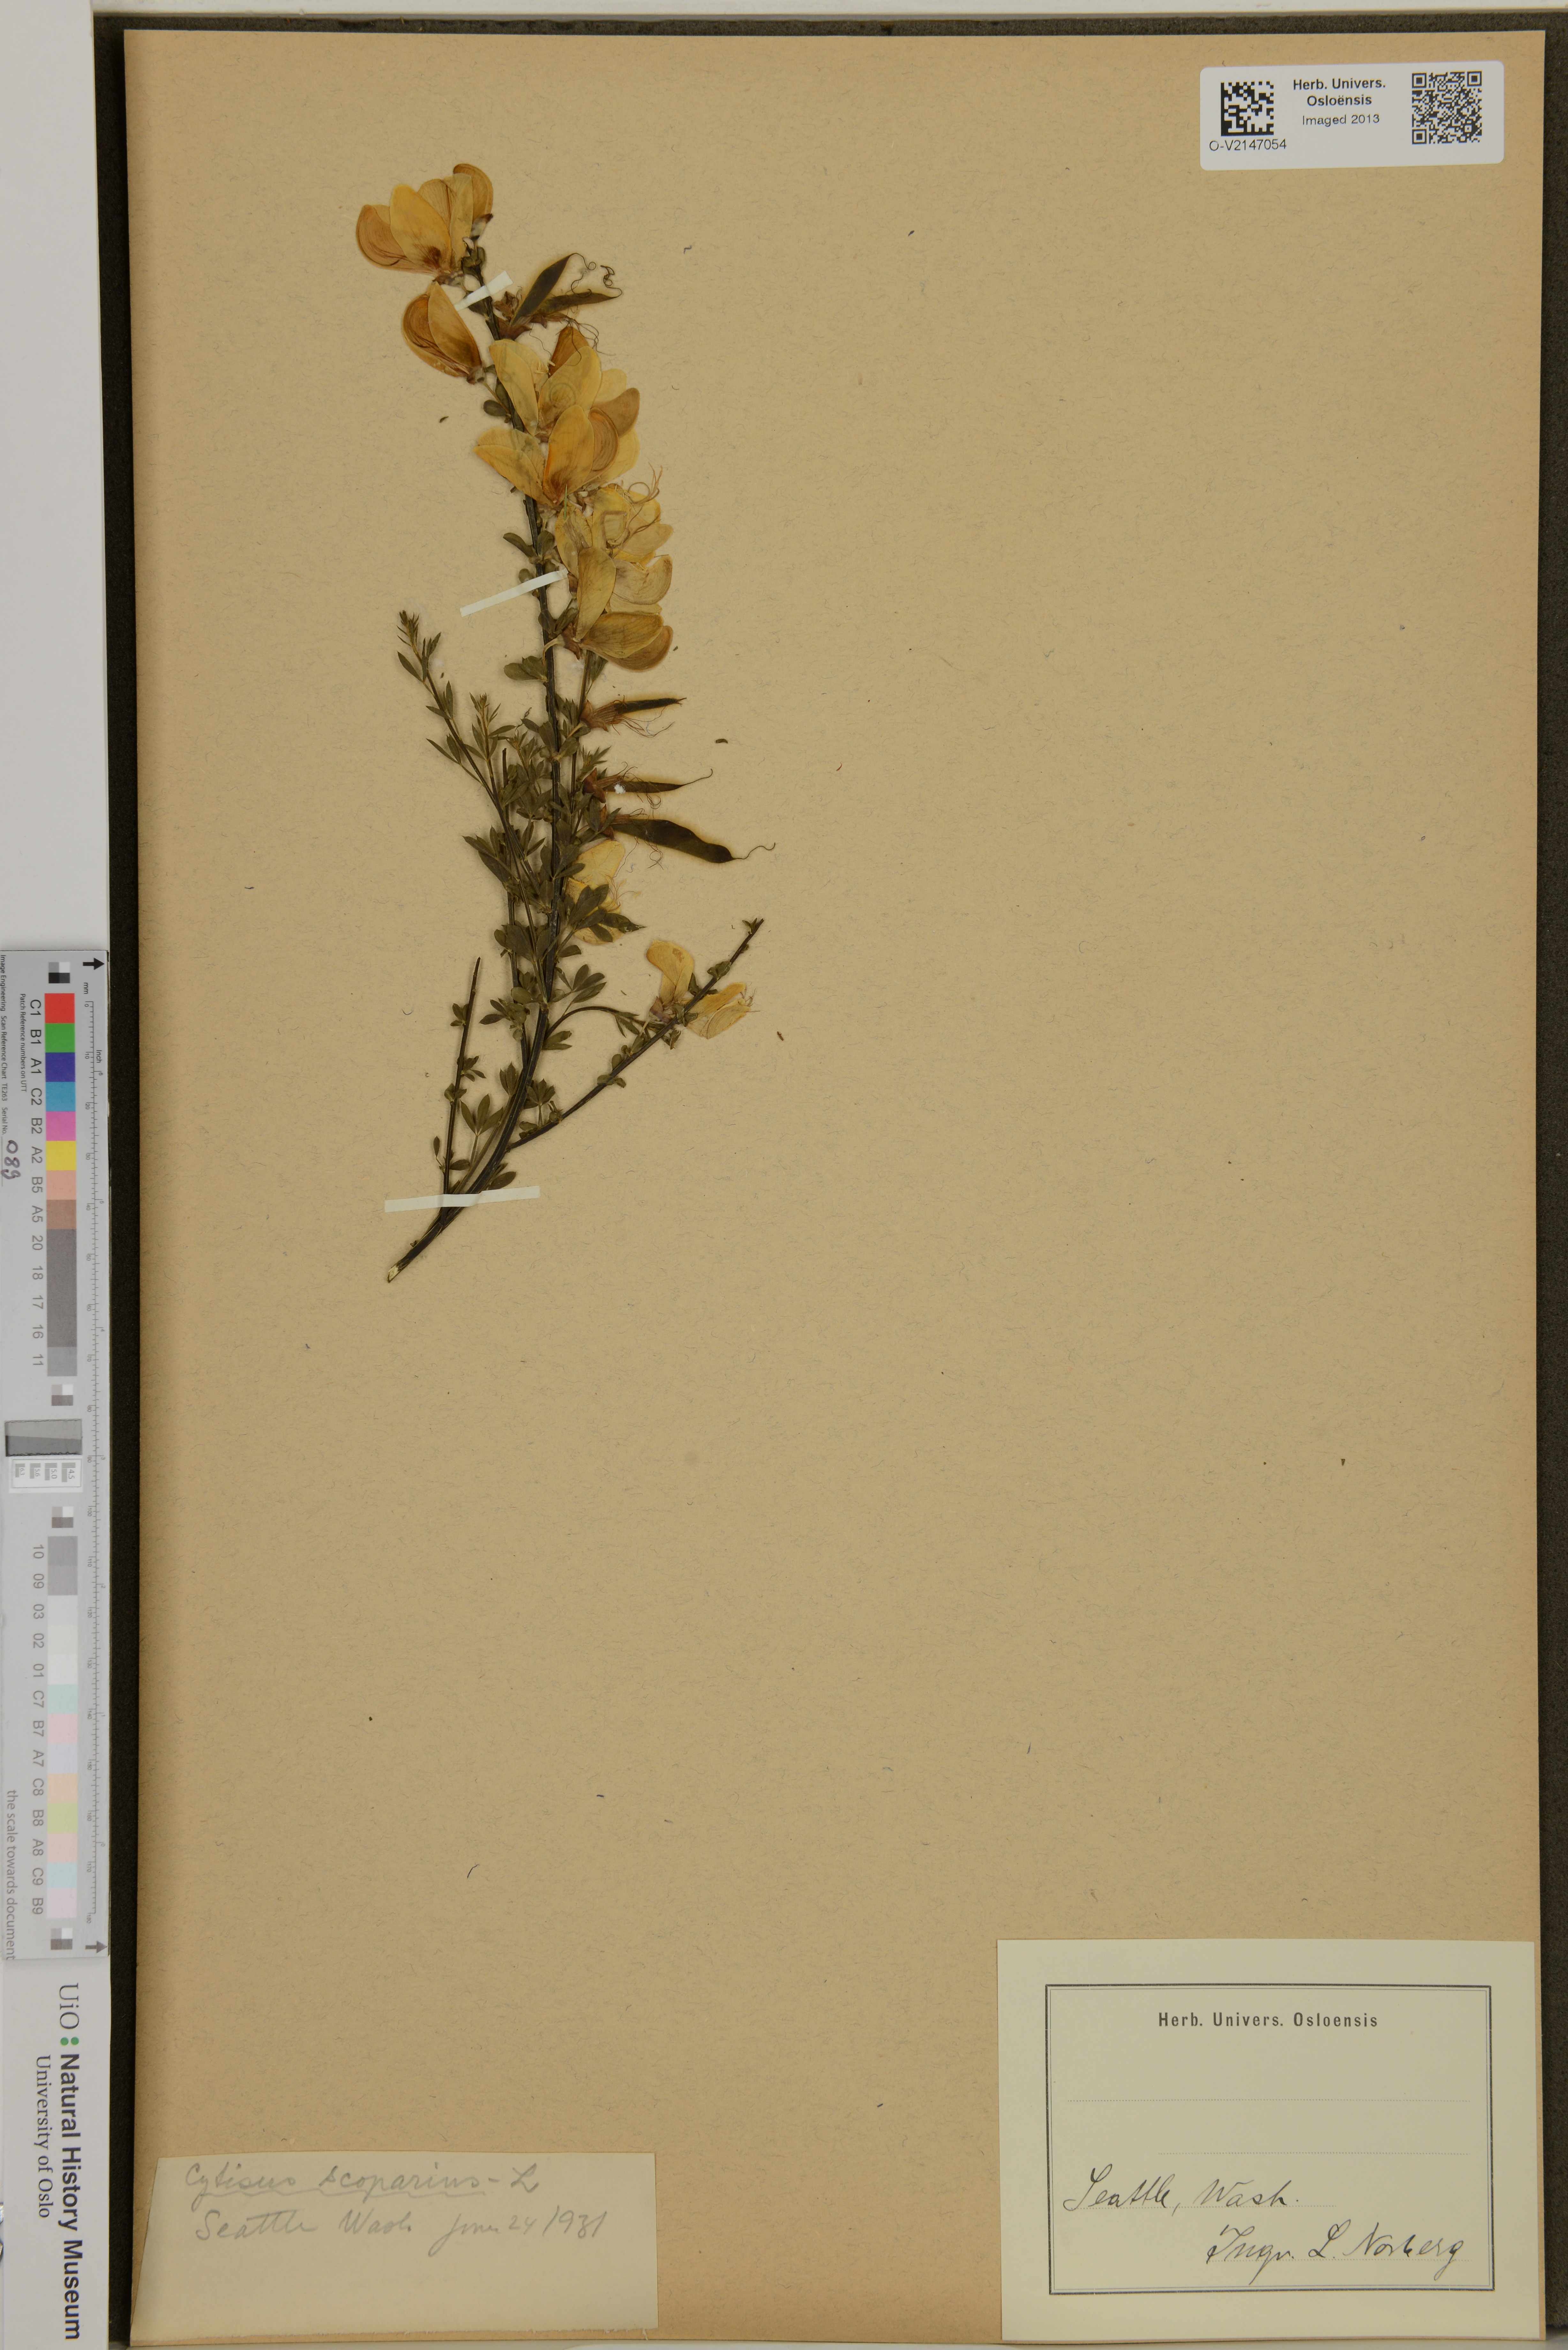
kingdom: Plantae
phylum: Tracheophyta
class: Magnoliopsida
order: Fabales
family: Fabaceae
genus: Cytisus
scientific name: Cytisus scoparius
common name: Scotch broom
